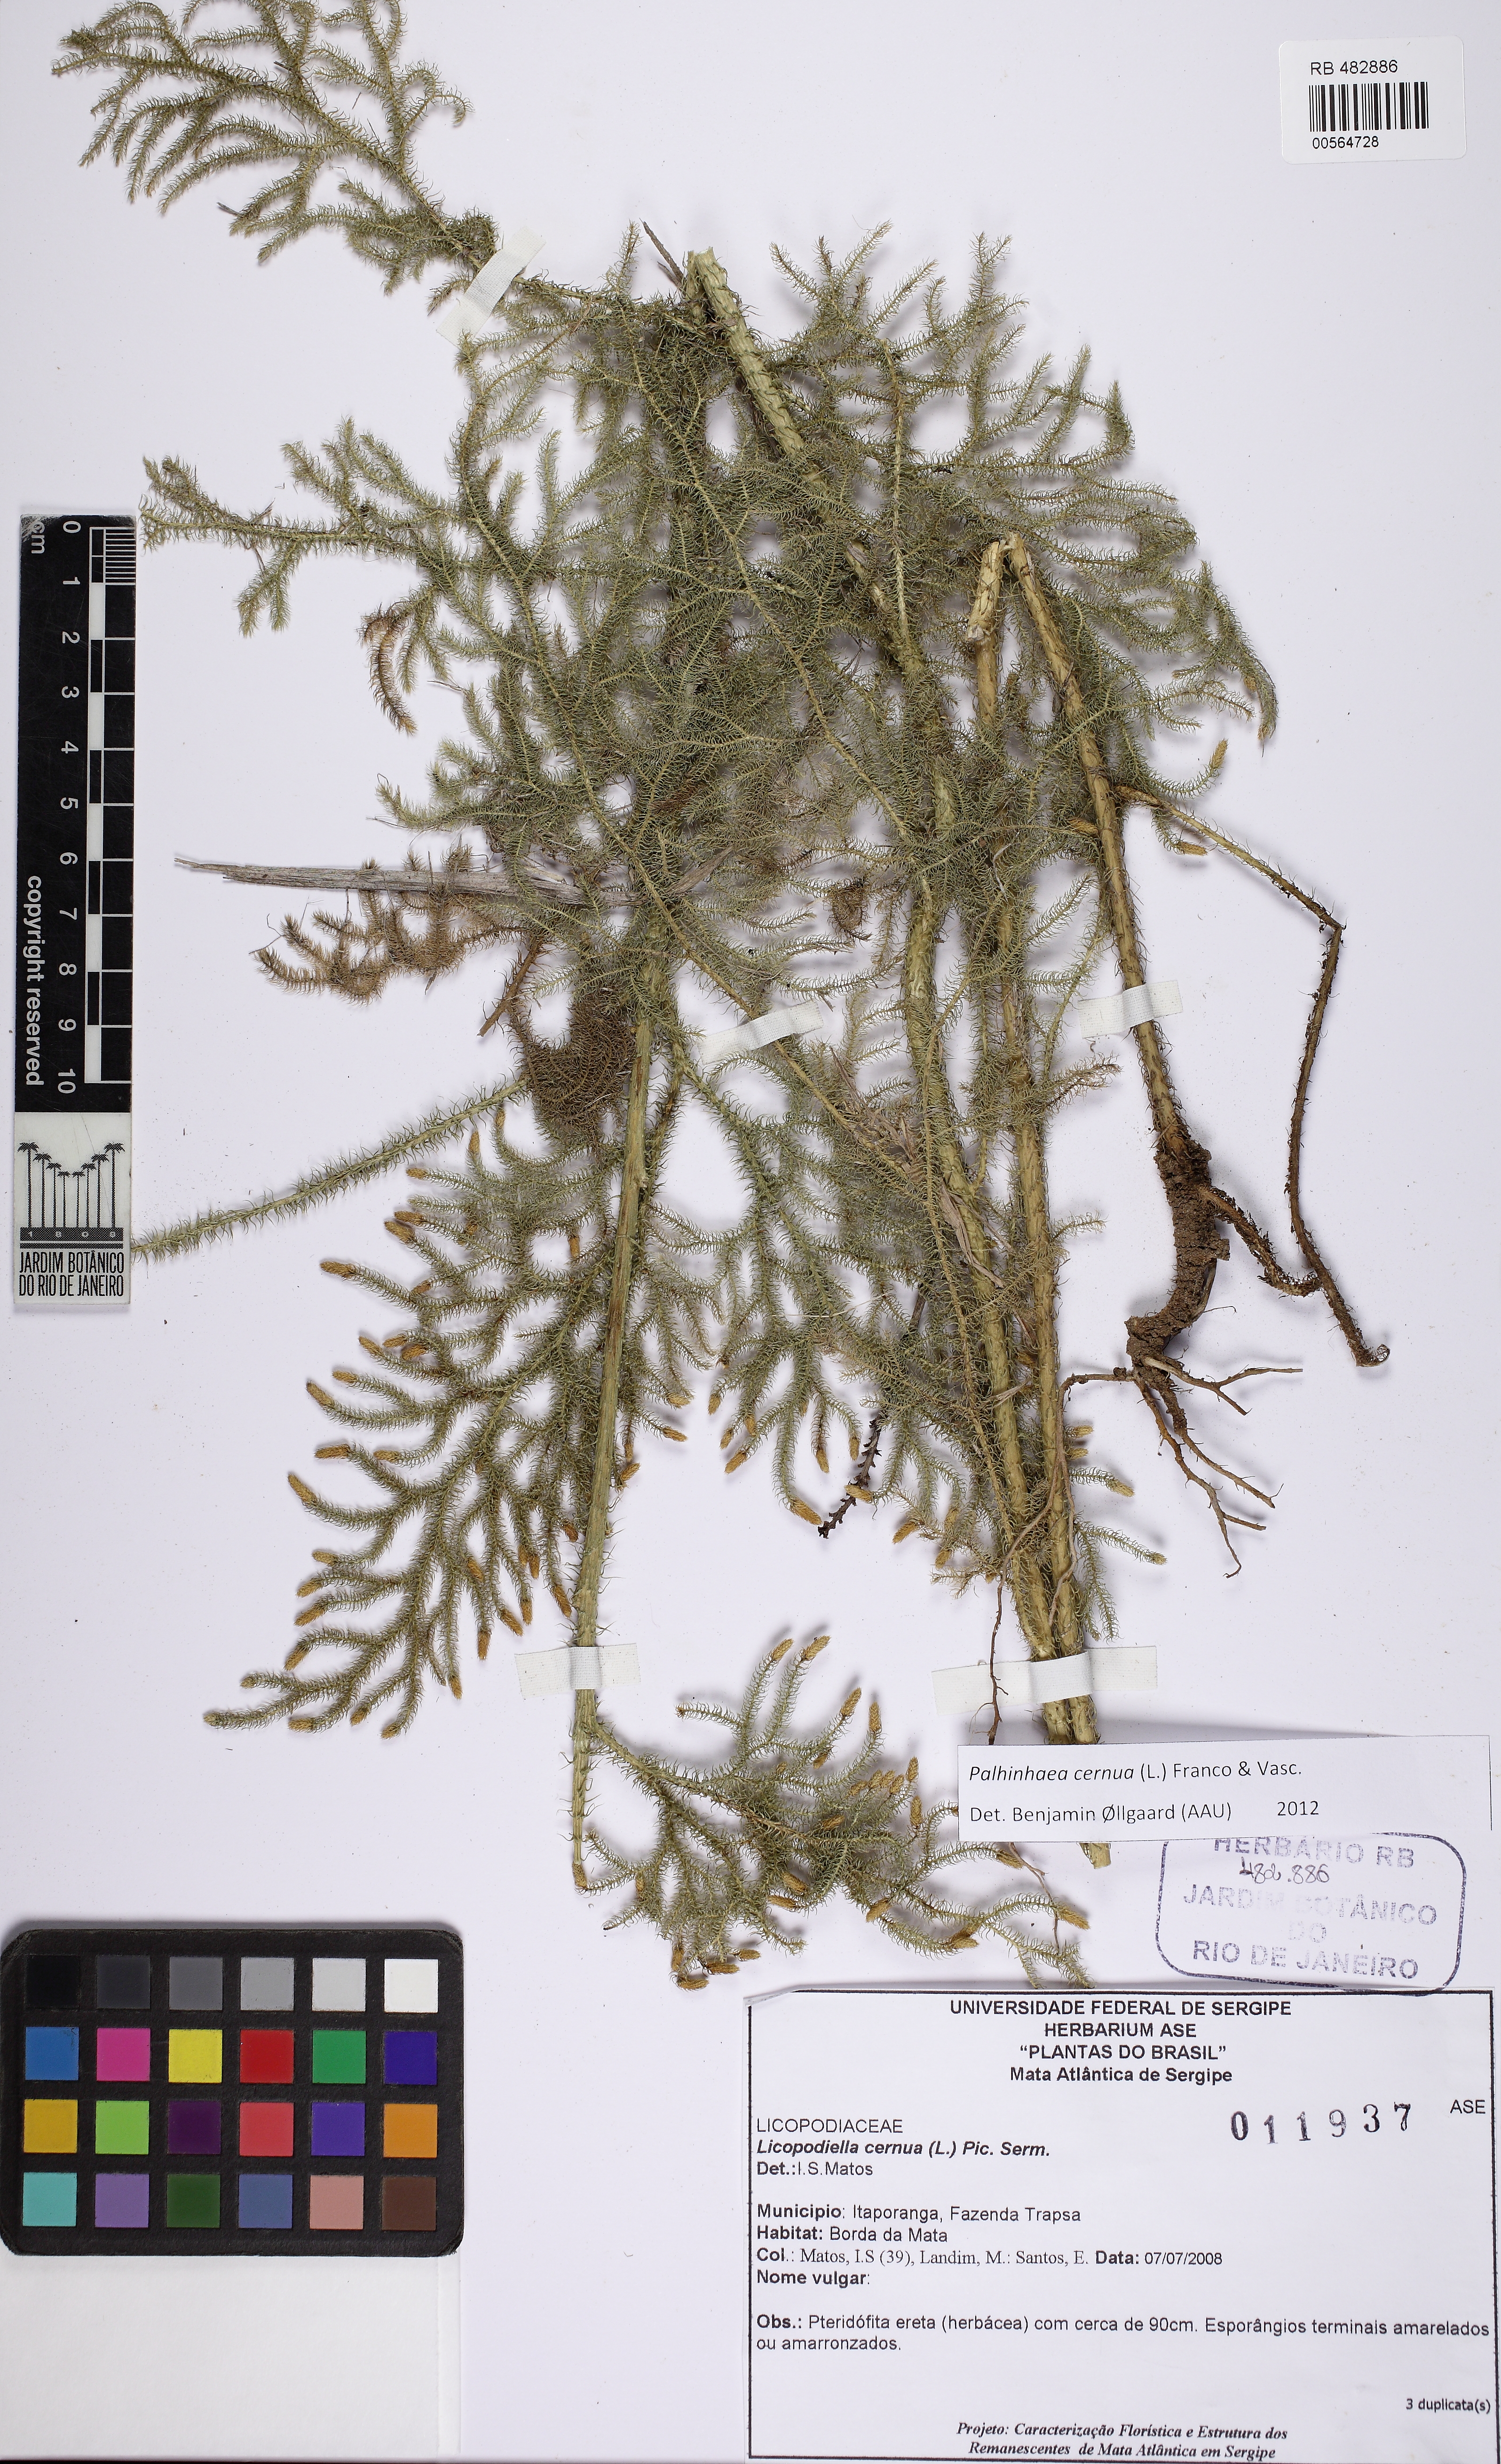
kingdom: Plantae
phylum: Tracheophyta
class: Lycopodiopsida
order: Lycopodiales
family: Lycopodiaceae
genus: Palhinhaea
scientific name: Palhinhaea cernua
